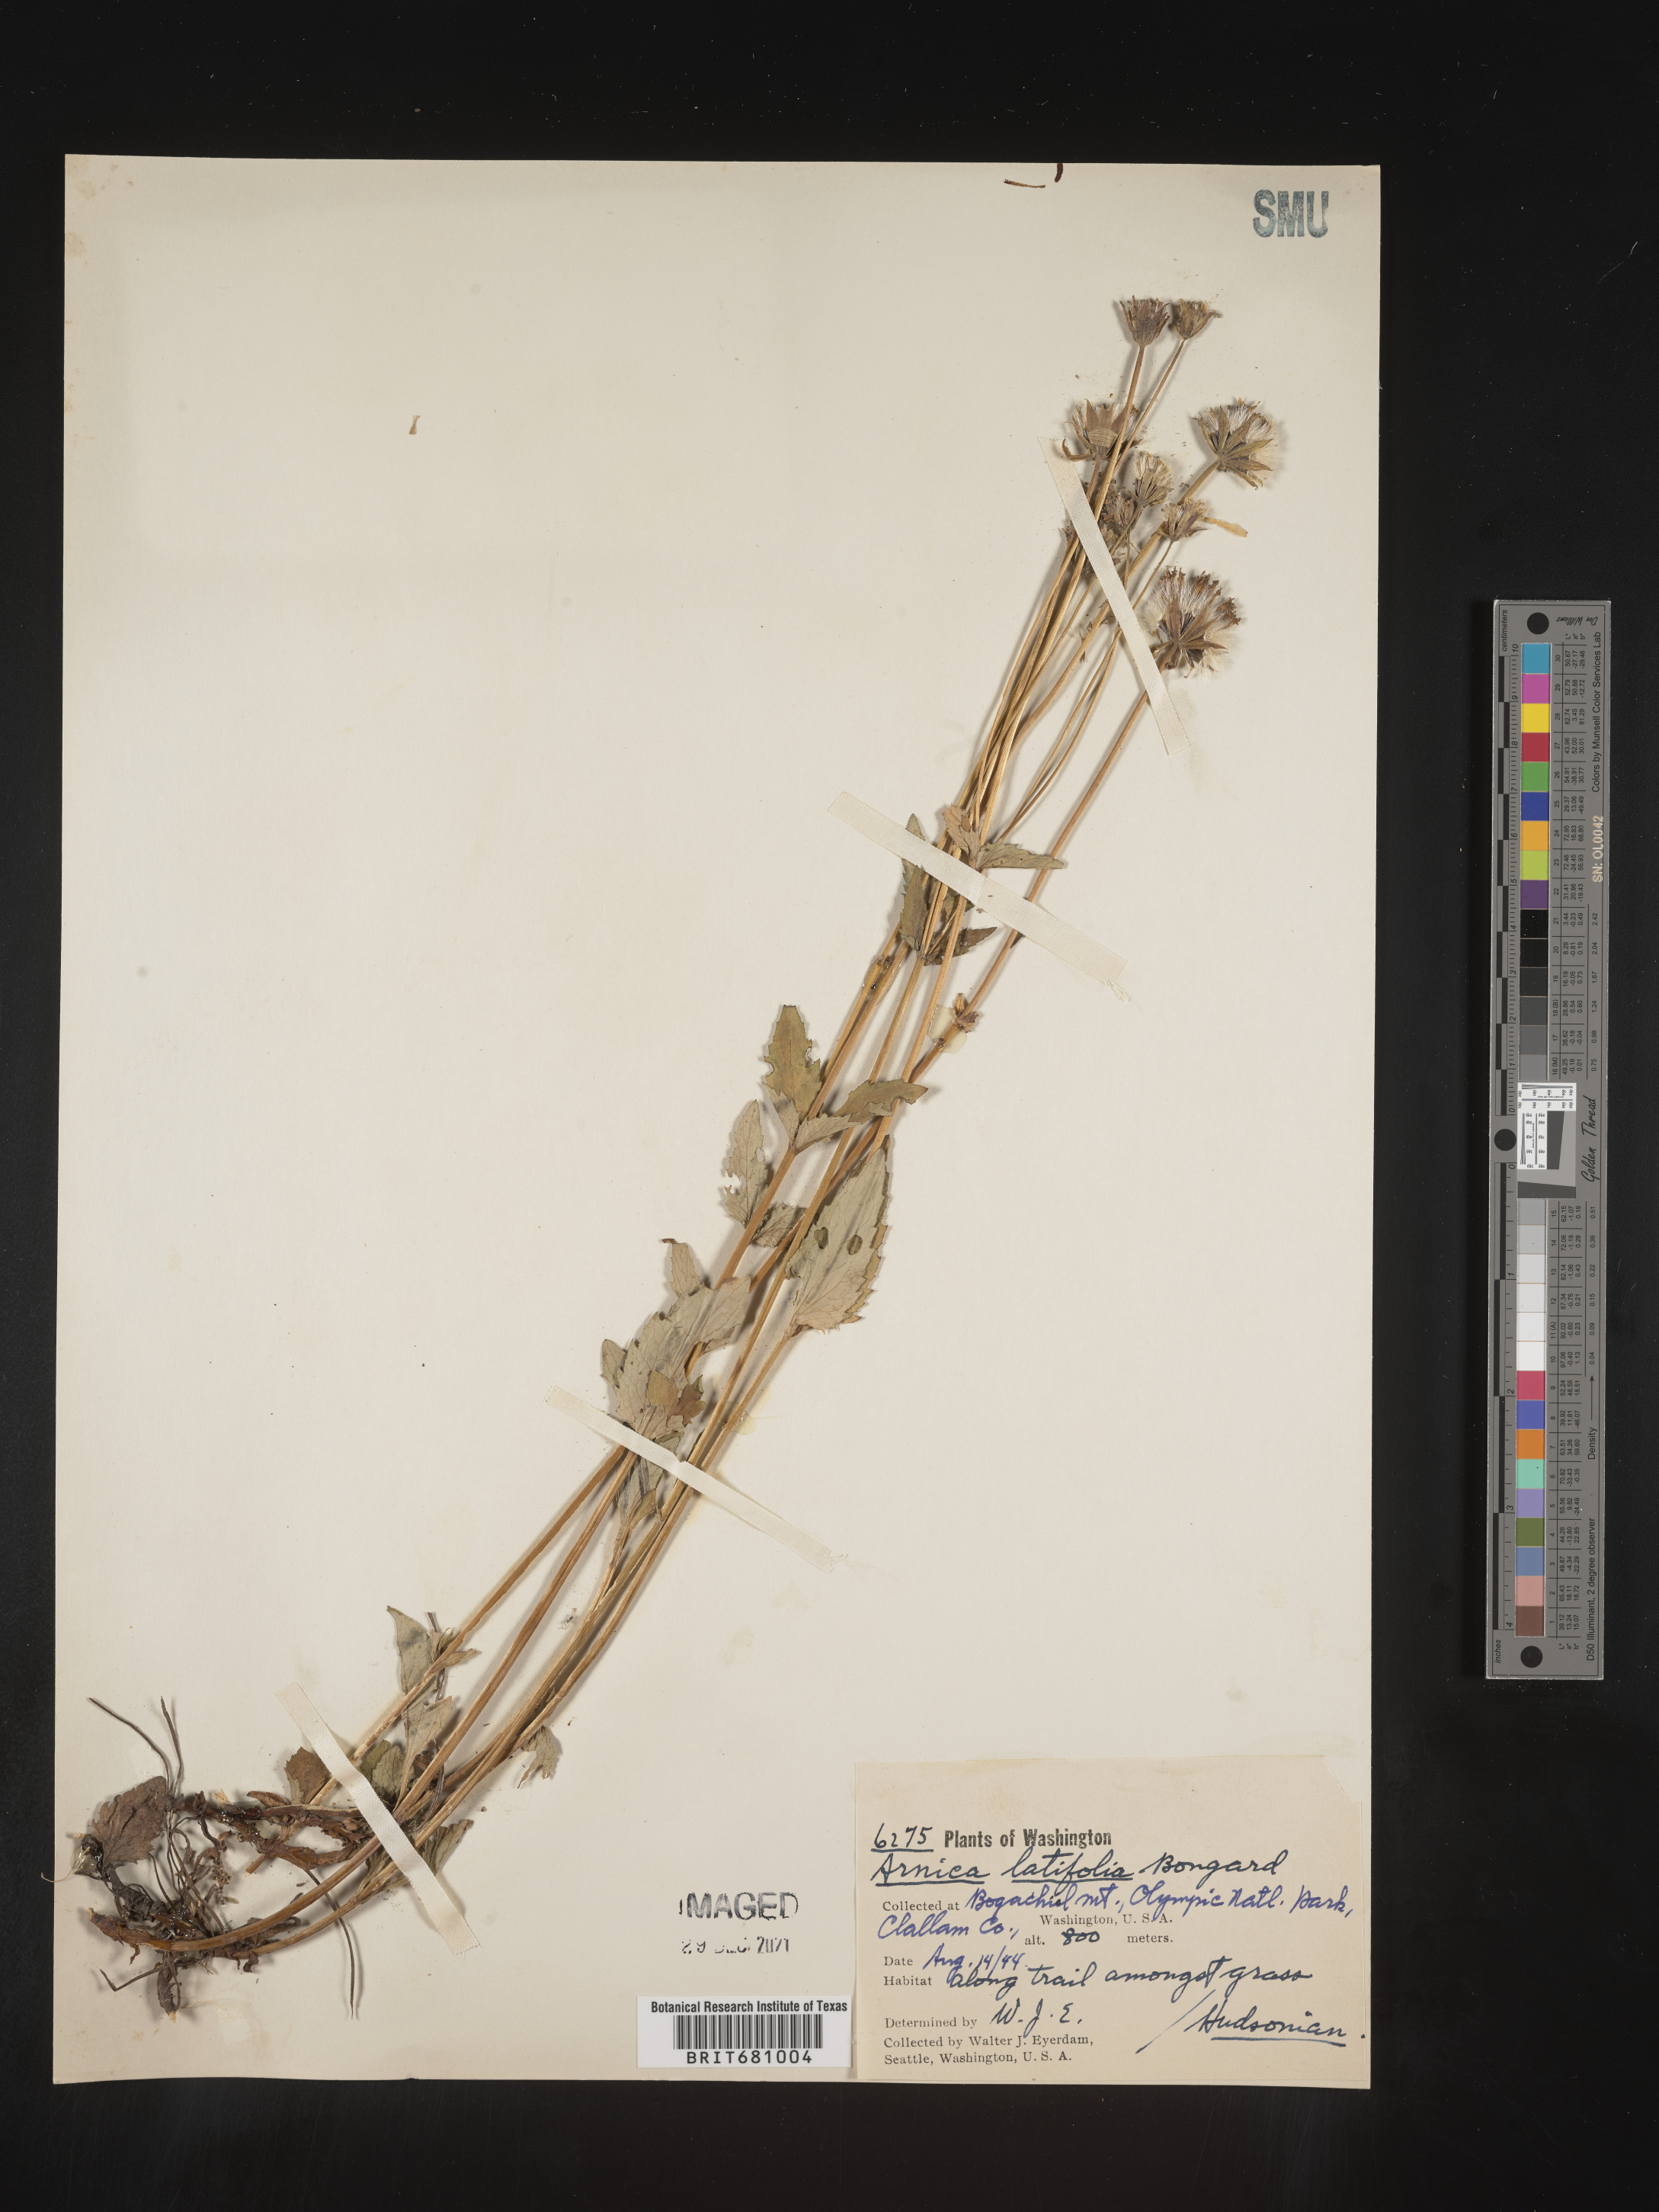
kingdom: Plantae
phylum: Tracheophyta
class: Magnoliopsida
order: Asterales
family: Asteraceae
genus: Arnica
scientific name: Arnica latifolia
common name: Arnica
